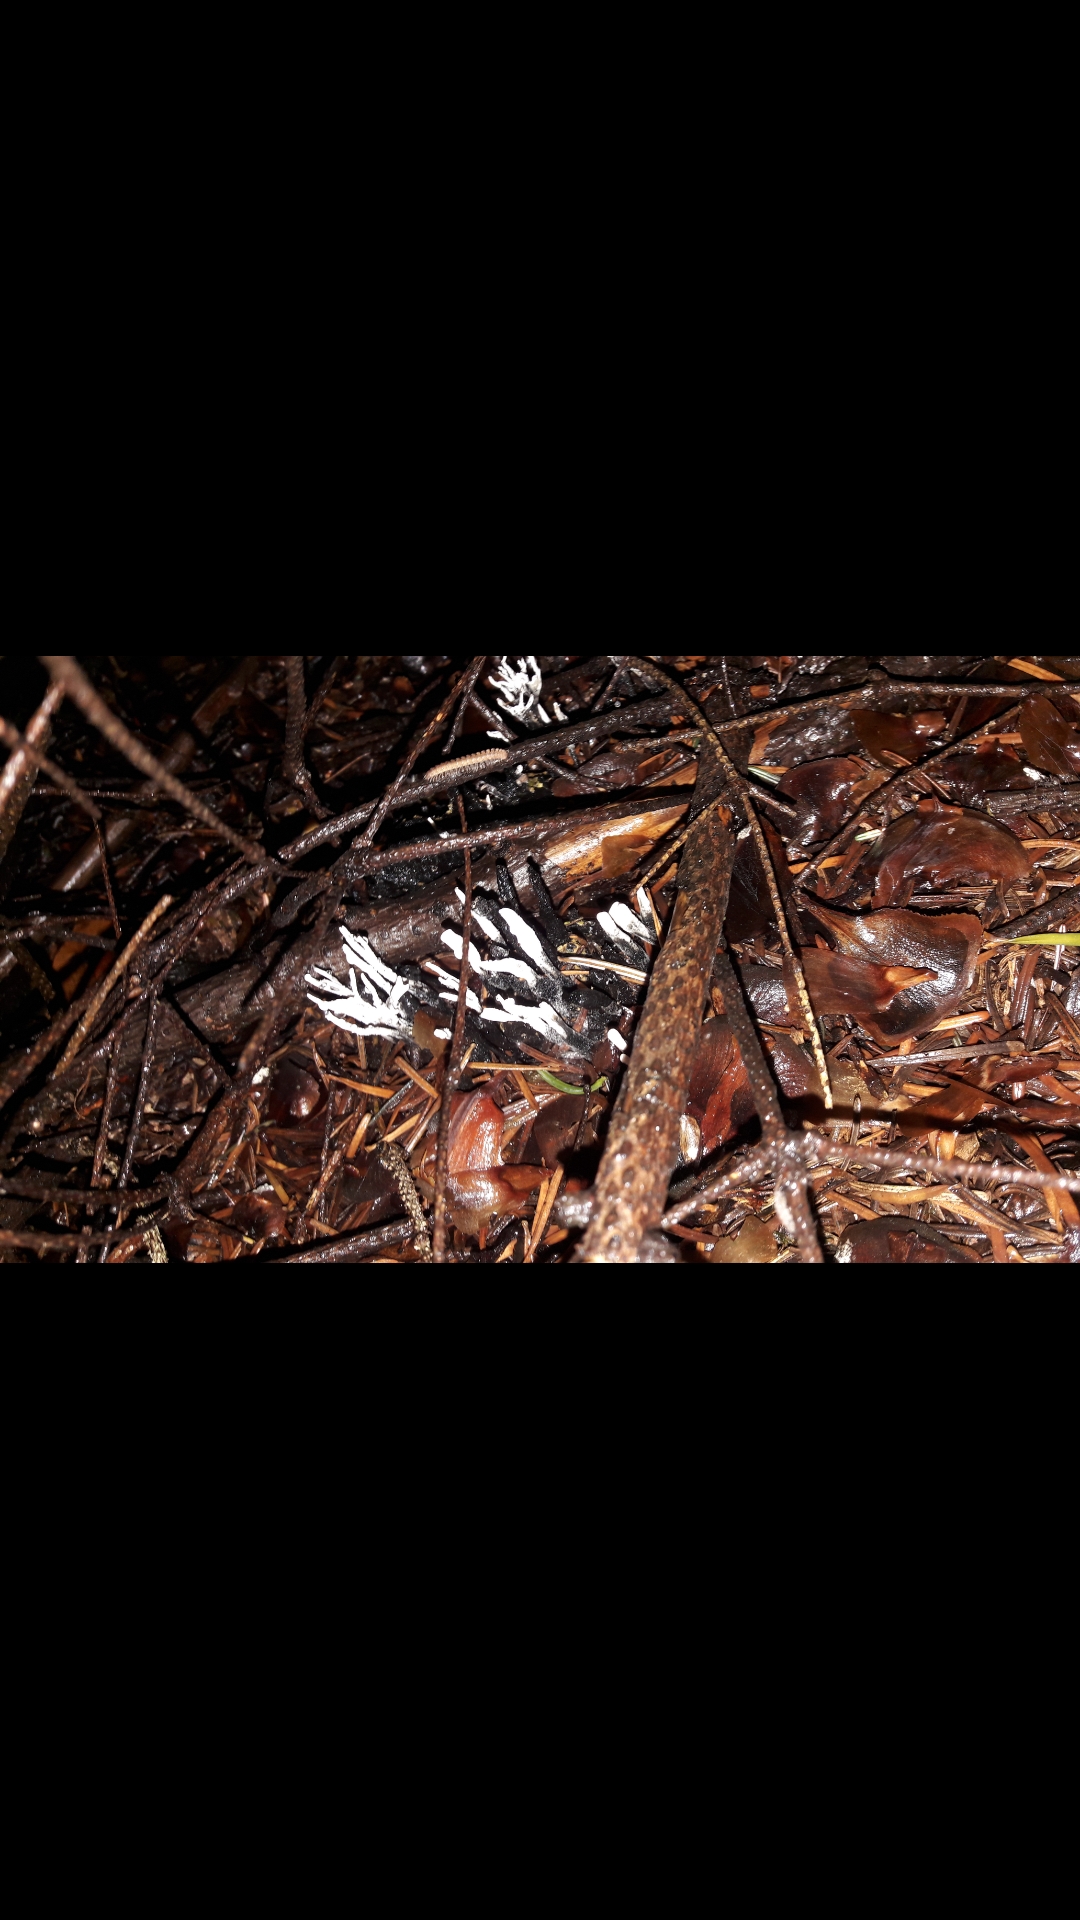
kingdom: Fungi
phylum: Ascomycota
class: Sordariomycetes
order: Xylariales
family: Xylariaceae
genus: Xylaria
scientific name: Xylaria hypoxylon
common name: grenet stødsvamp
